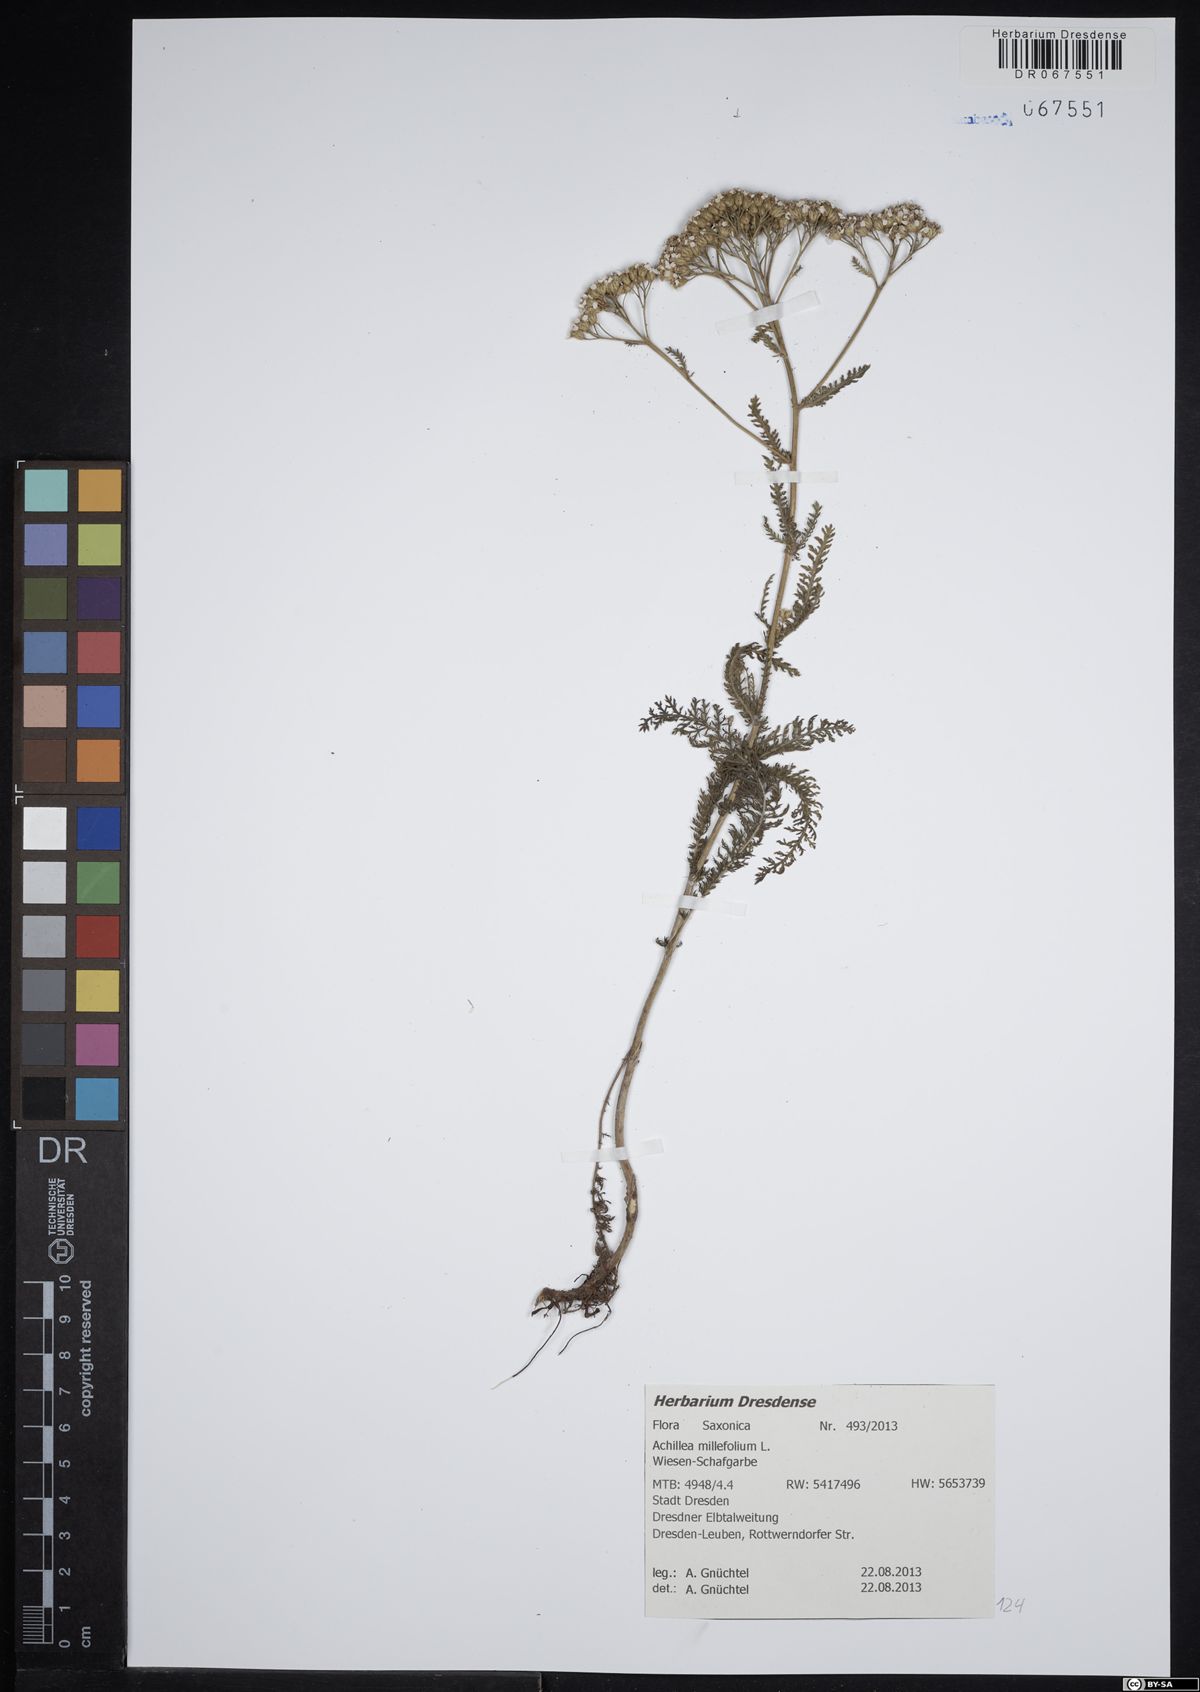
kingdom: Plantae
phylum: Tracheophyta
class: Magnoliopsida
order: Asterales
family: Asteraceae
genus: Achillea
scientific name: Achillea millefolium
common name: Yarrow
